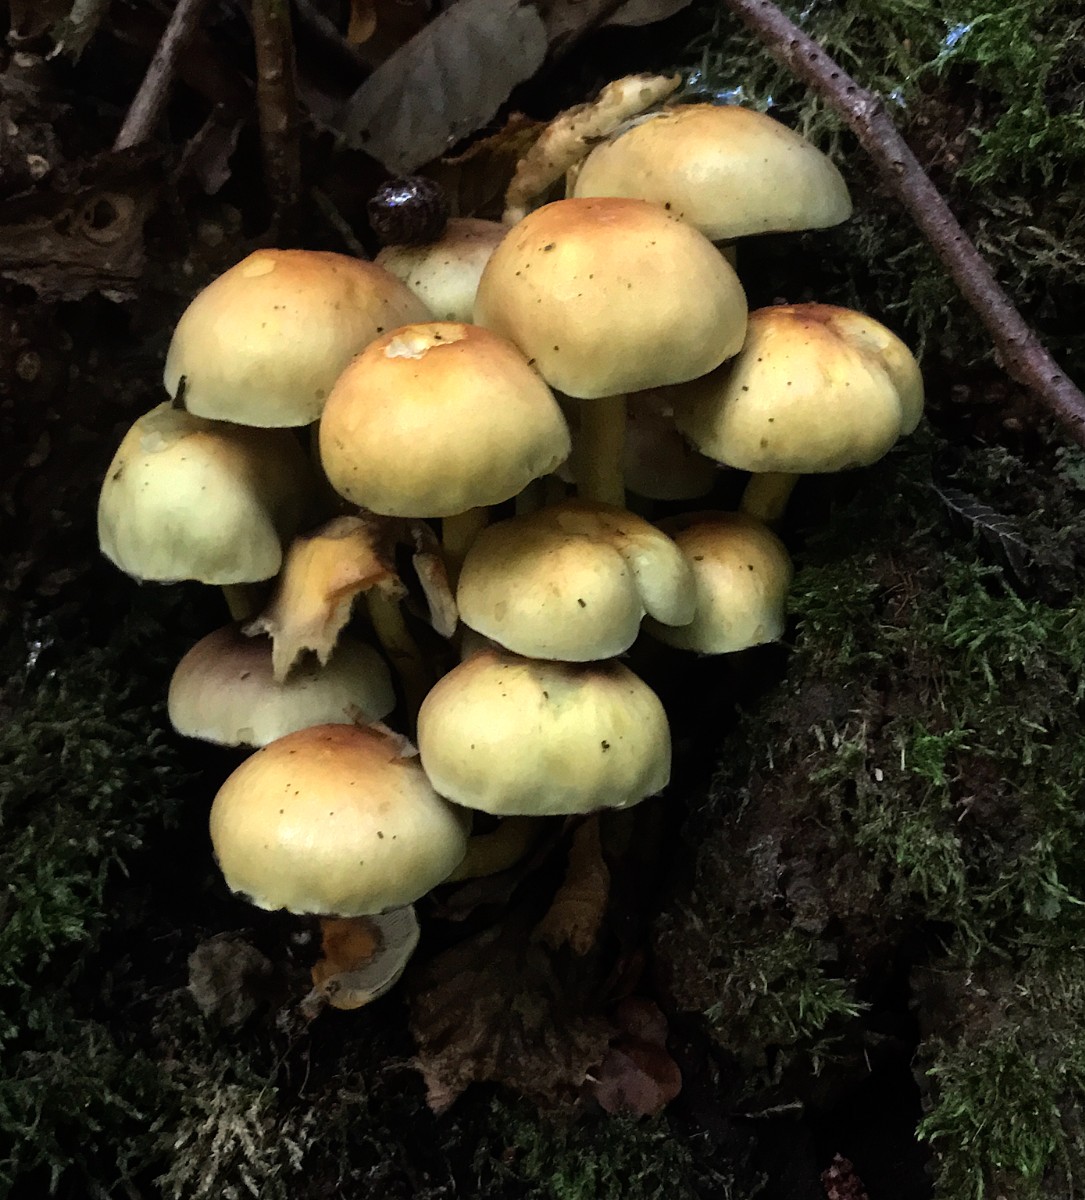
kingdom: Fungi
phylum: Basidiomycota
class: Agaricomycetes
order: Agaricales
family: Strophariaceae
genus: Hypholoma
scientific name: Hypholoma fasciculare
